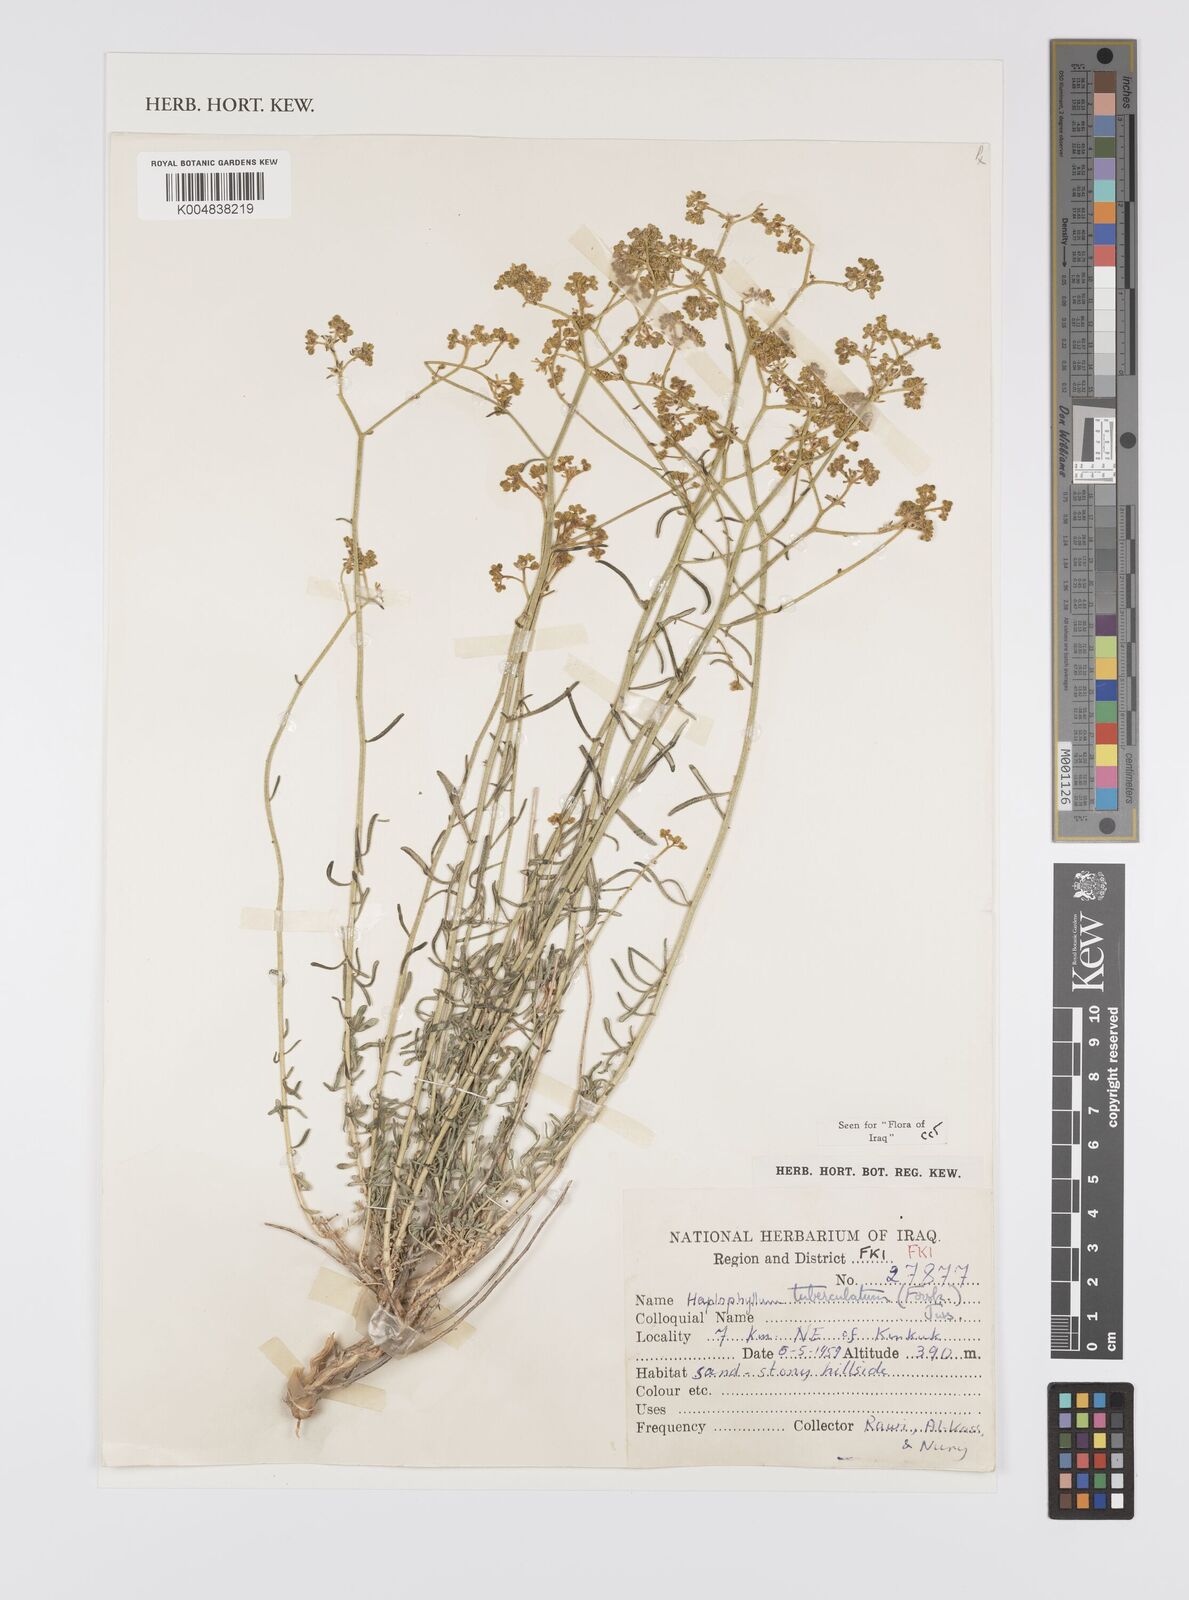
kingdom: Plantae
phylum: Tracheophyta
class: Magnoliopsida
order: Sapindales
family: Rutaceae
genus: Haplophyllum
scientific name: Haplophyllum tuberculatum
